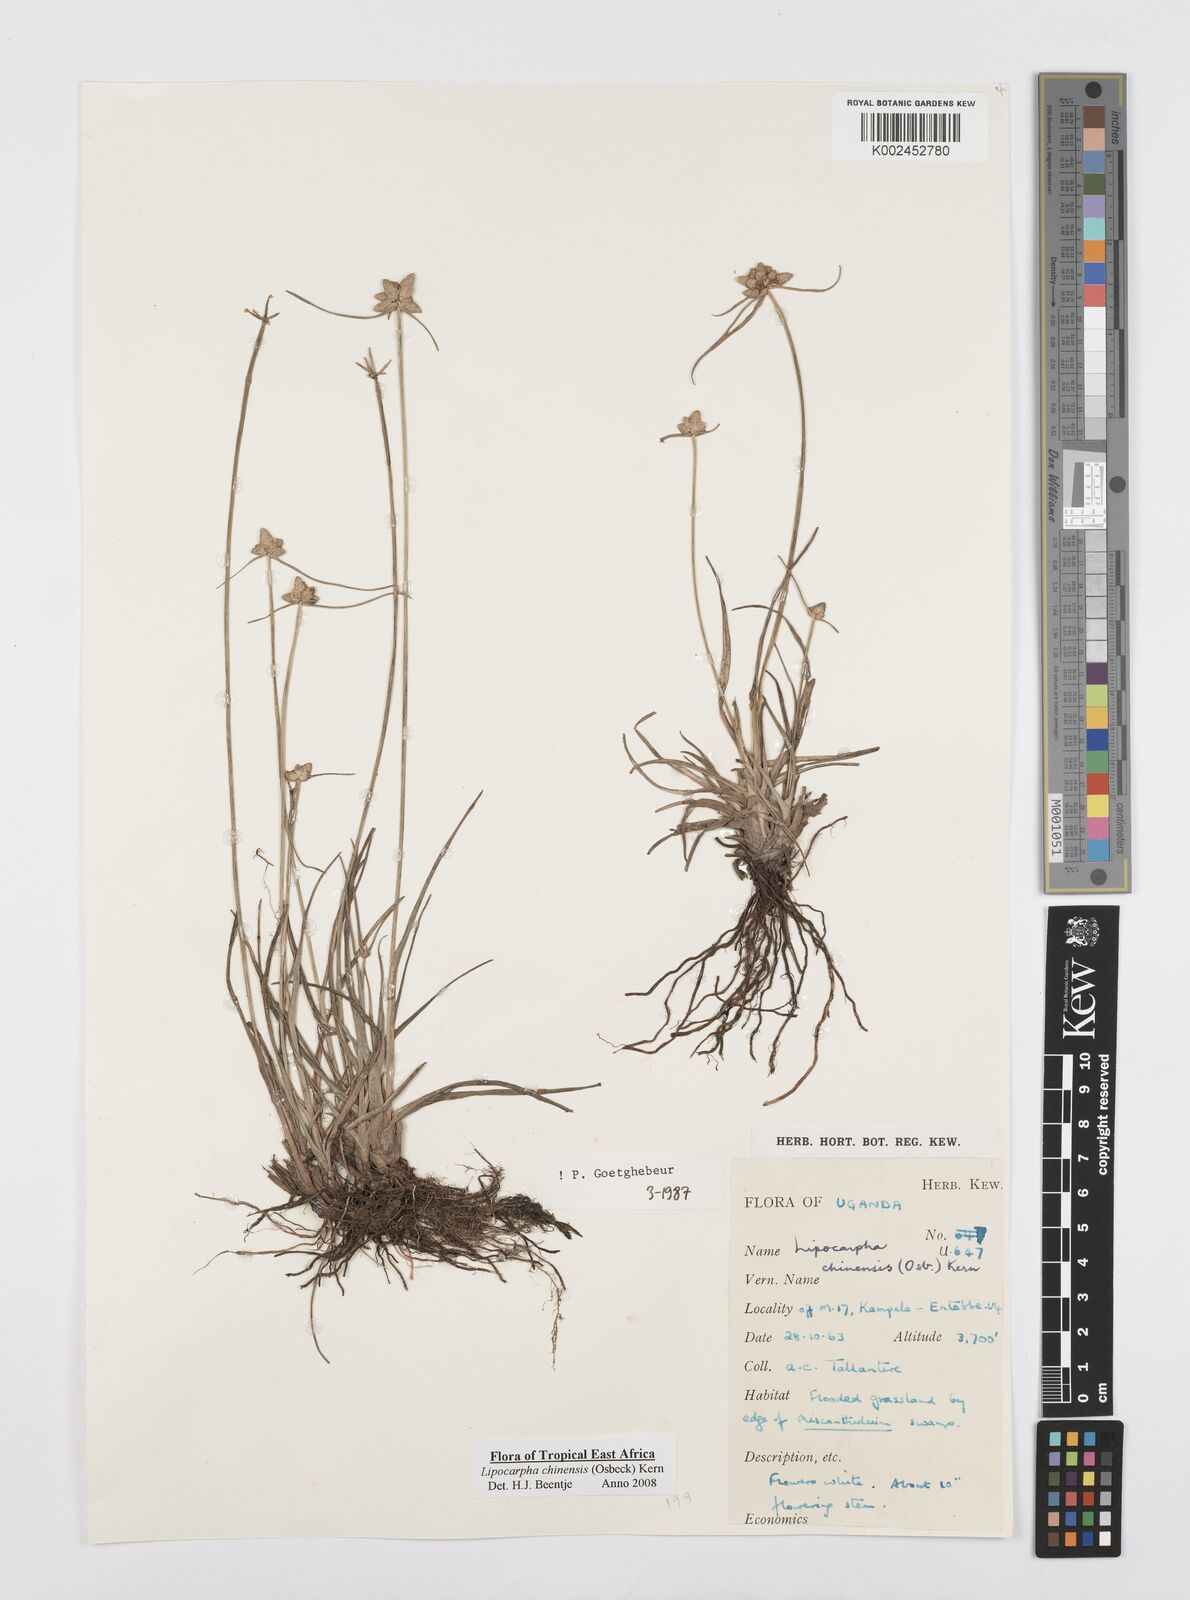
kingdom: Plantae
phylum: Tracheophyta
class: Liliopsida
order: Poales
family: Cyperaceae
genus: Cyperus
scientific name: Cyperus albescens
